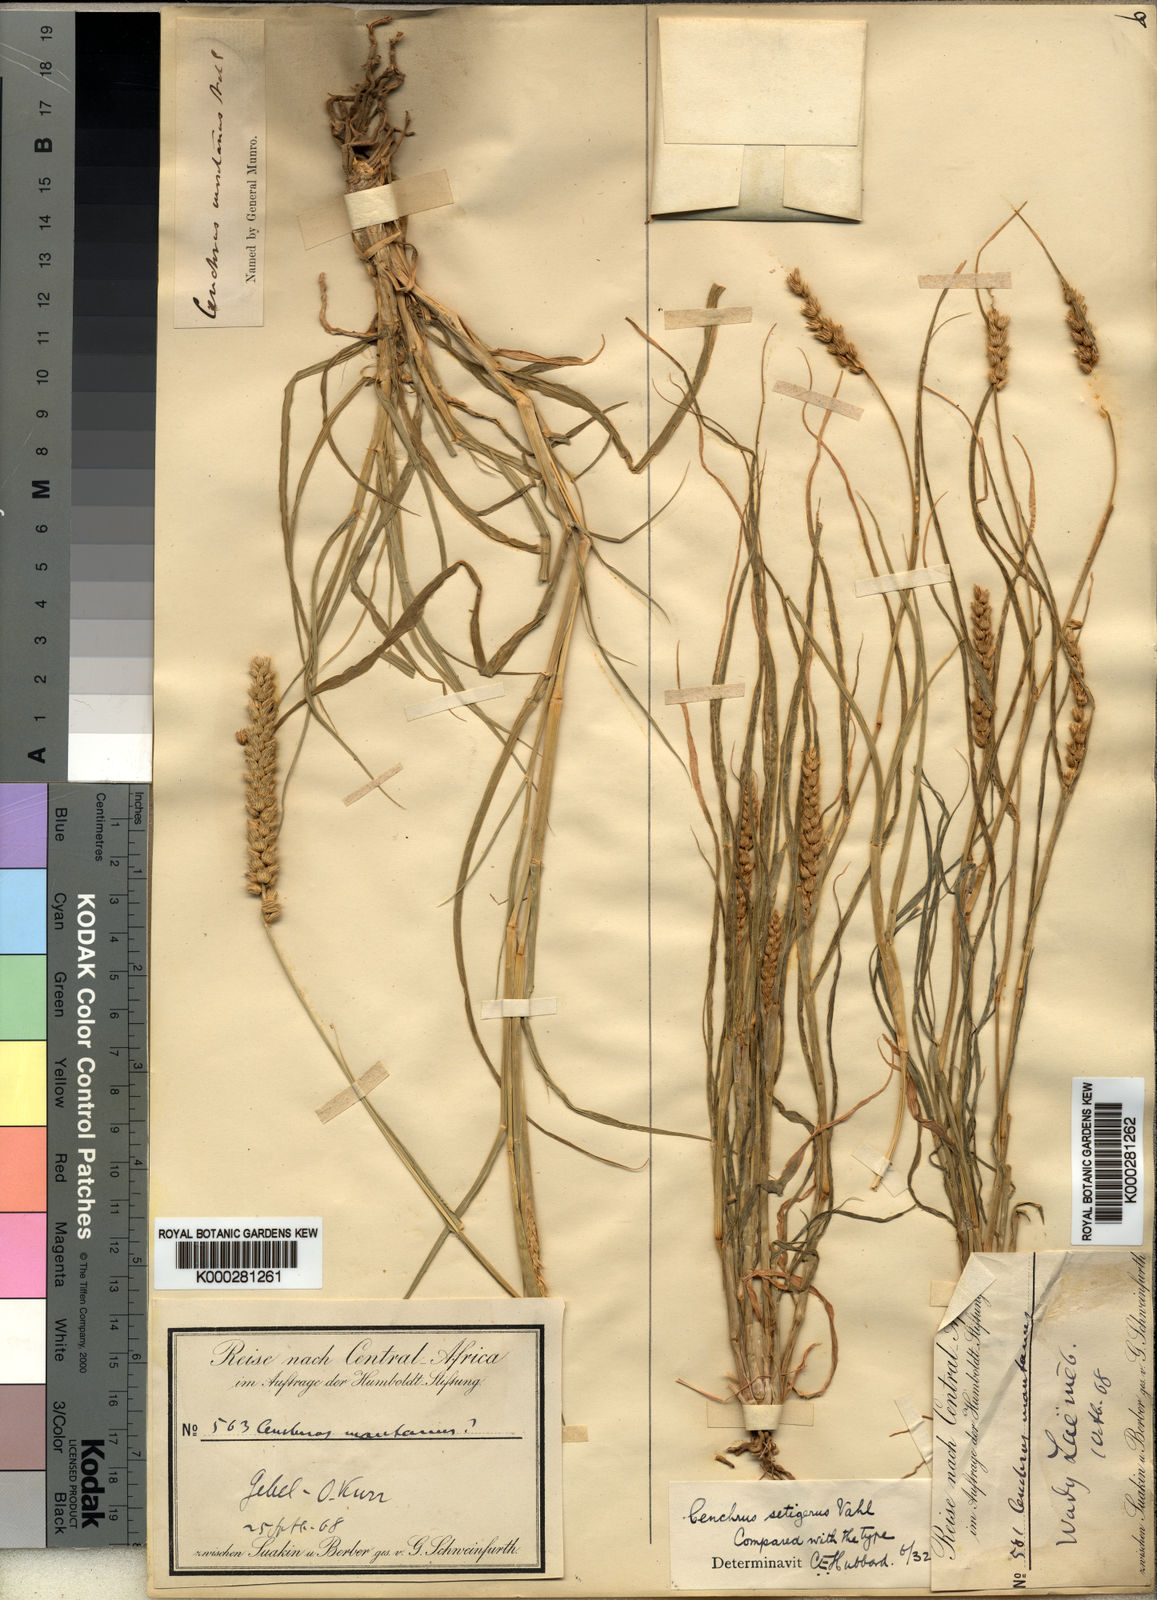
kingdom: Plantae
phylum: Tracheophyta
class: Liliopsida
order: Poales
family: Poaceae
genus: Cenchrus
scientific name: Cenchrus
